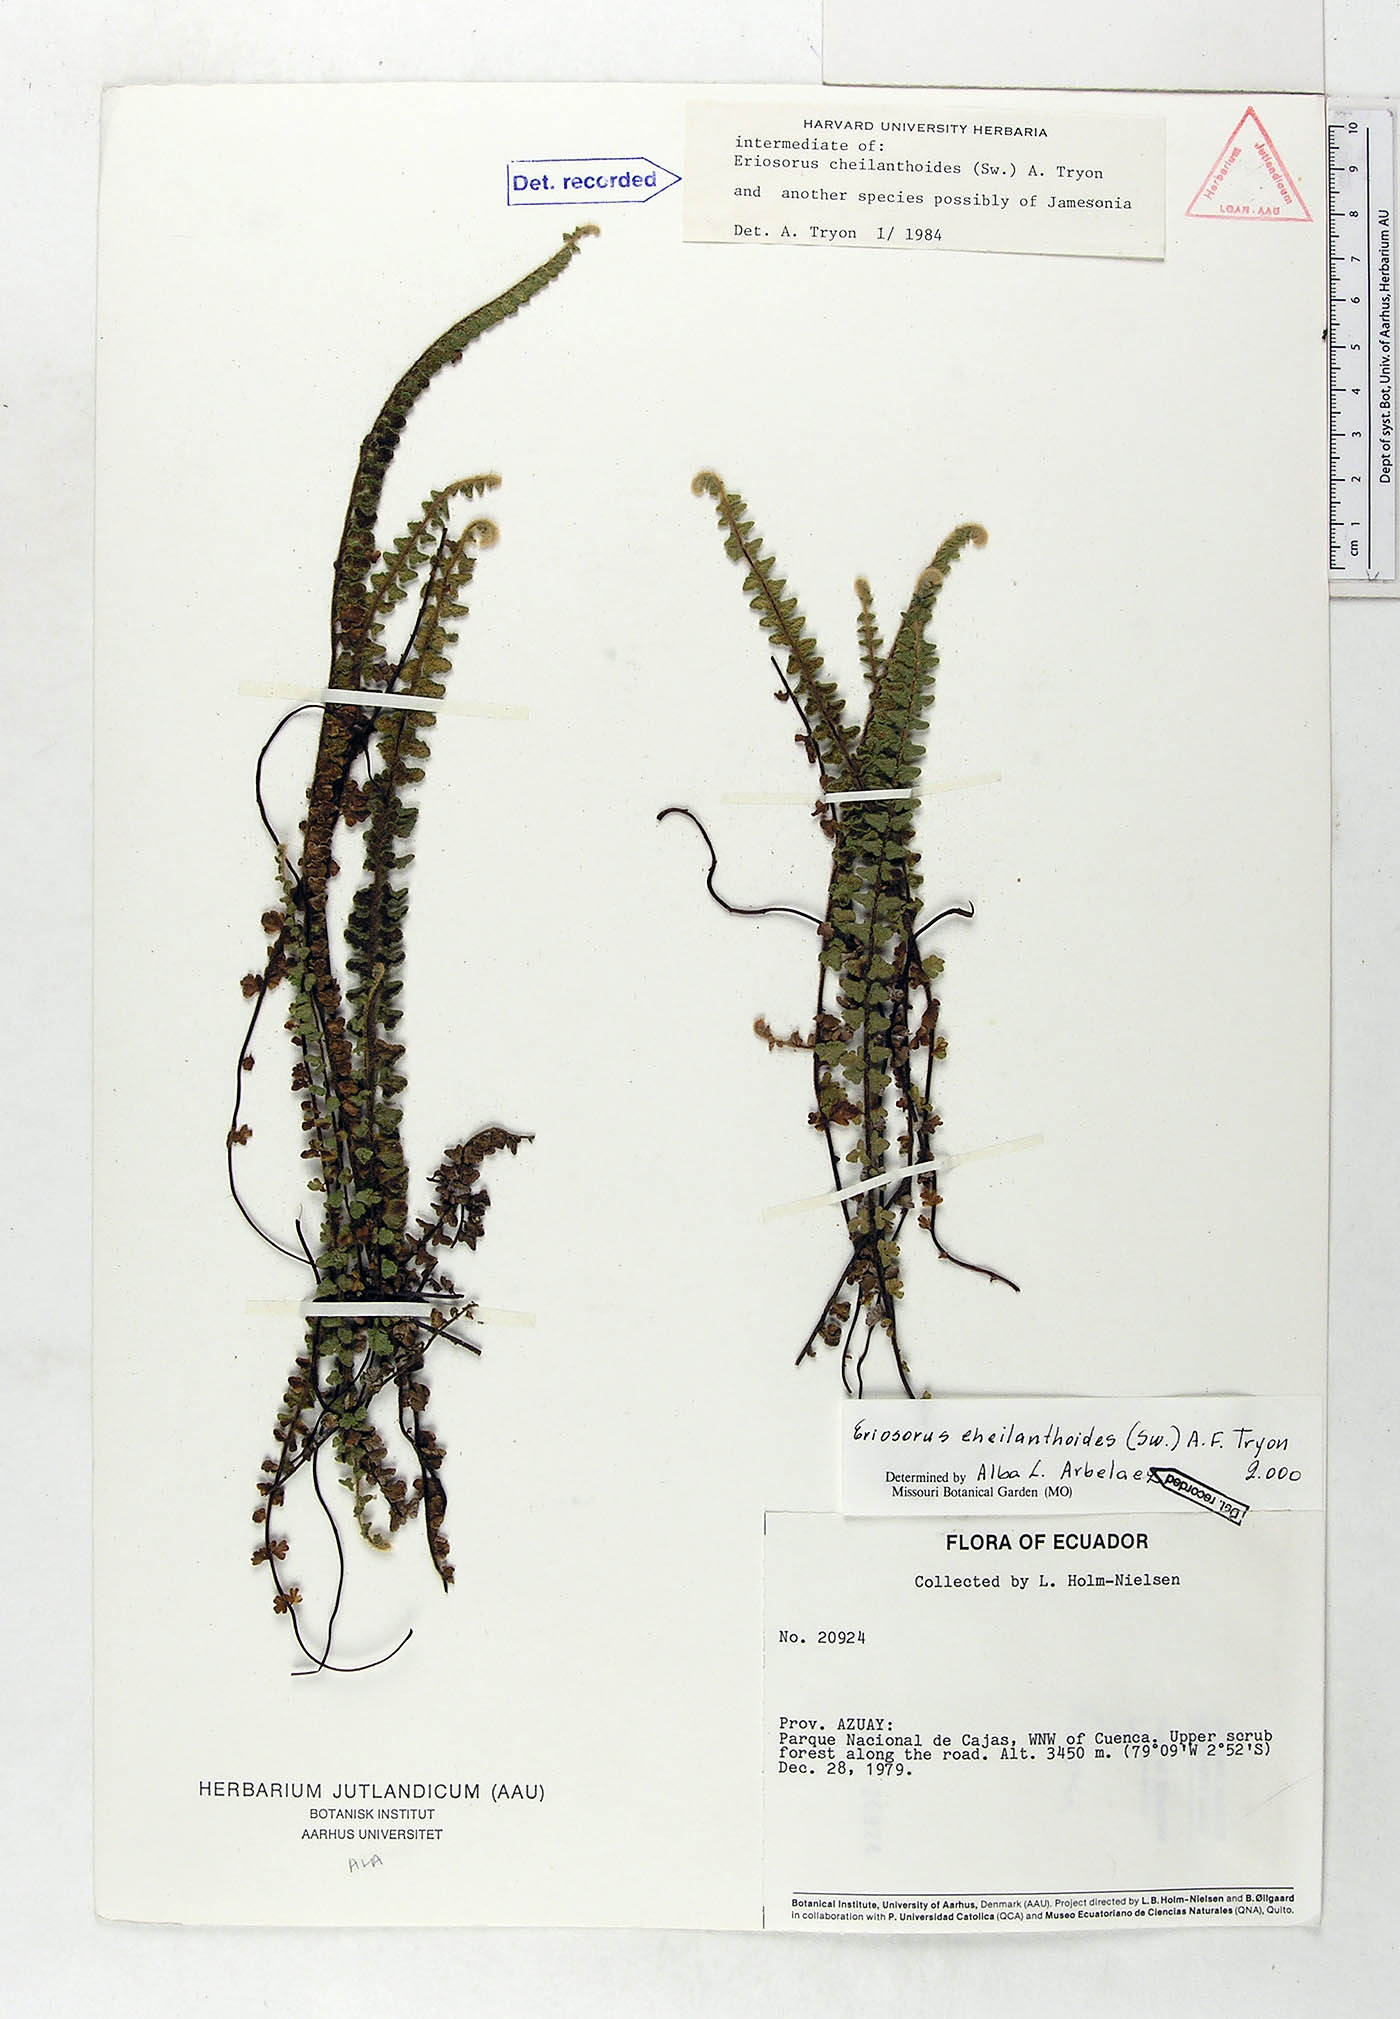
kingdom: Plantae
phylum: Tracheophyta
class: Polypodiopsida
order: Polypodiales
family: Pteridaceae
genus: Jamesonia
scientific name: Jamesonia cheilanthoides
